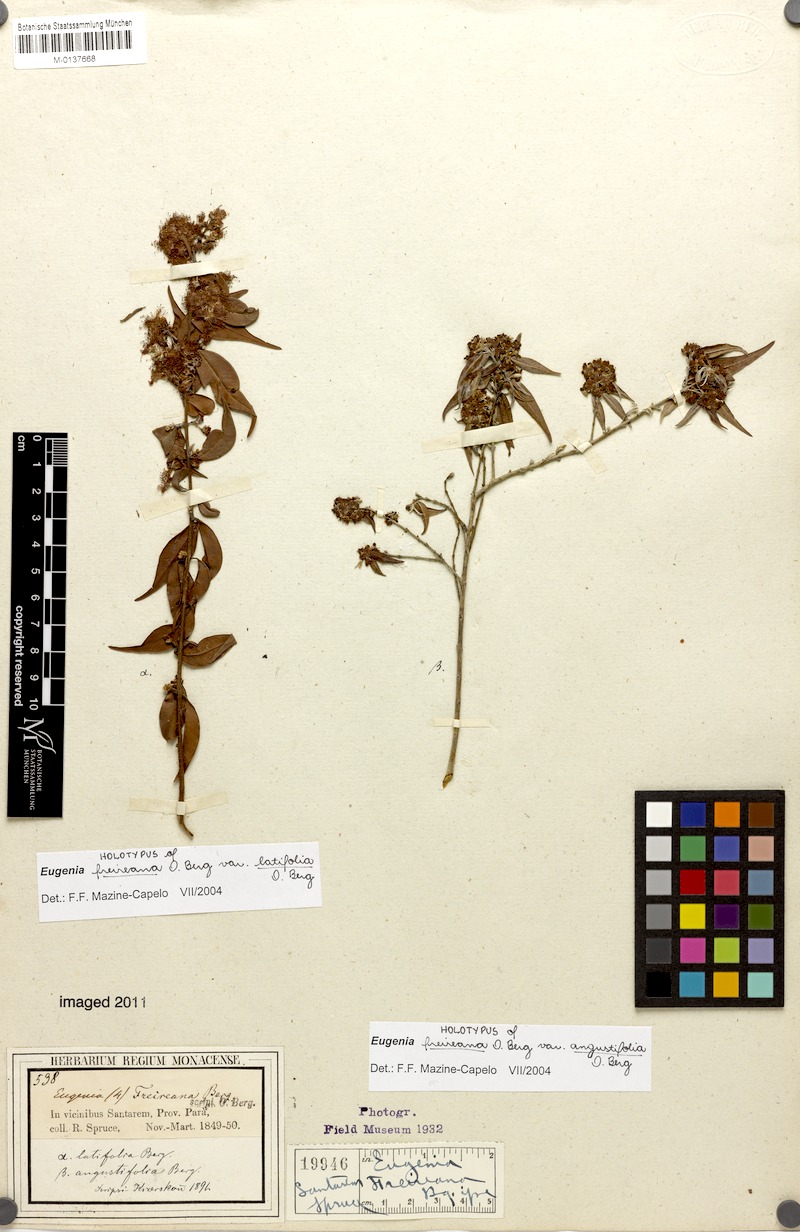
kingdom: Plantae
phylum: Tracheophyta
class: Magnoliopsida
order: Myrtales
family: Myrtaceae
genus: Eugenia
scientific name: Eugenia biflora
